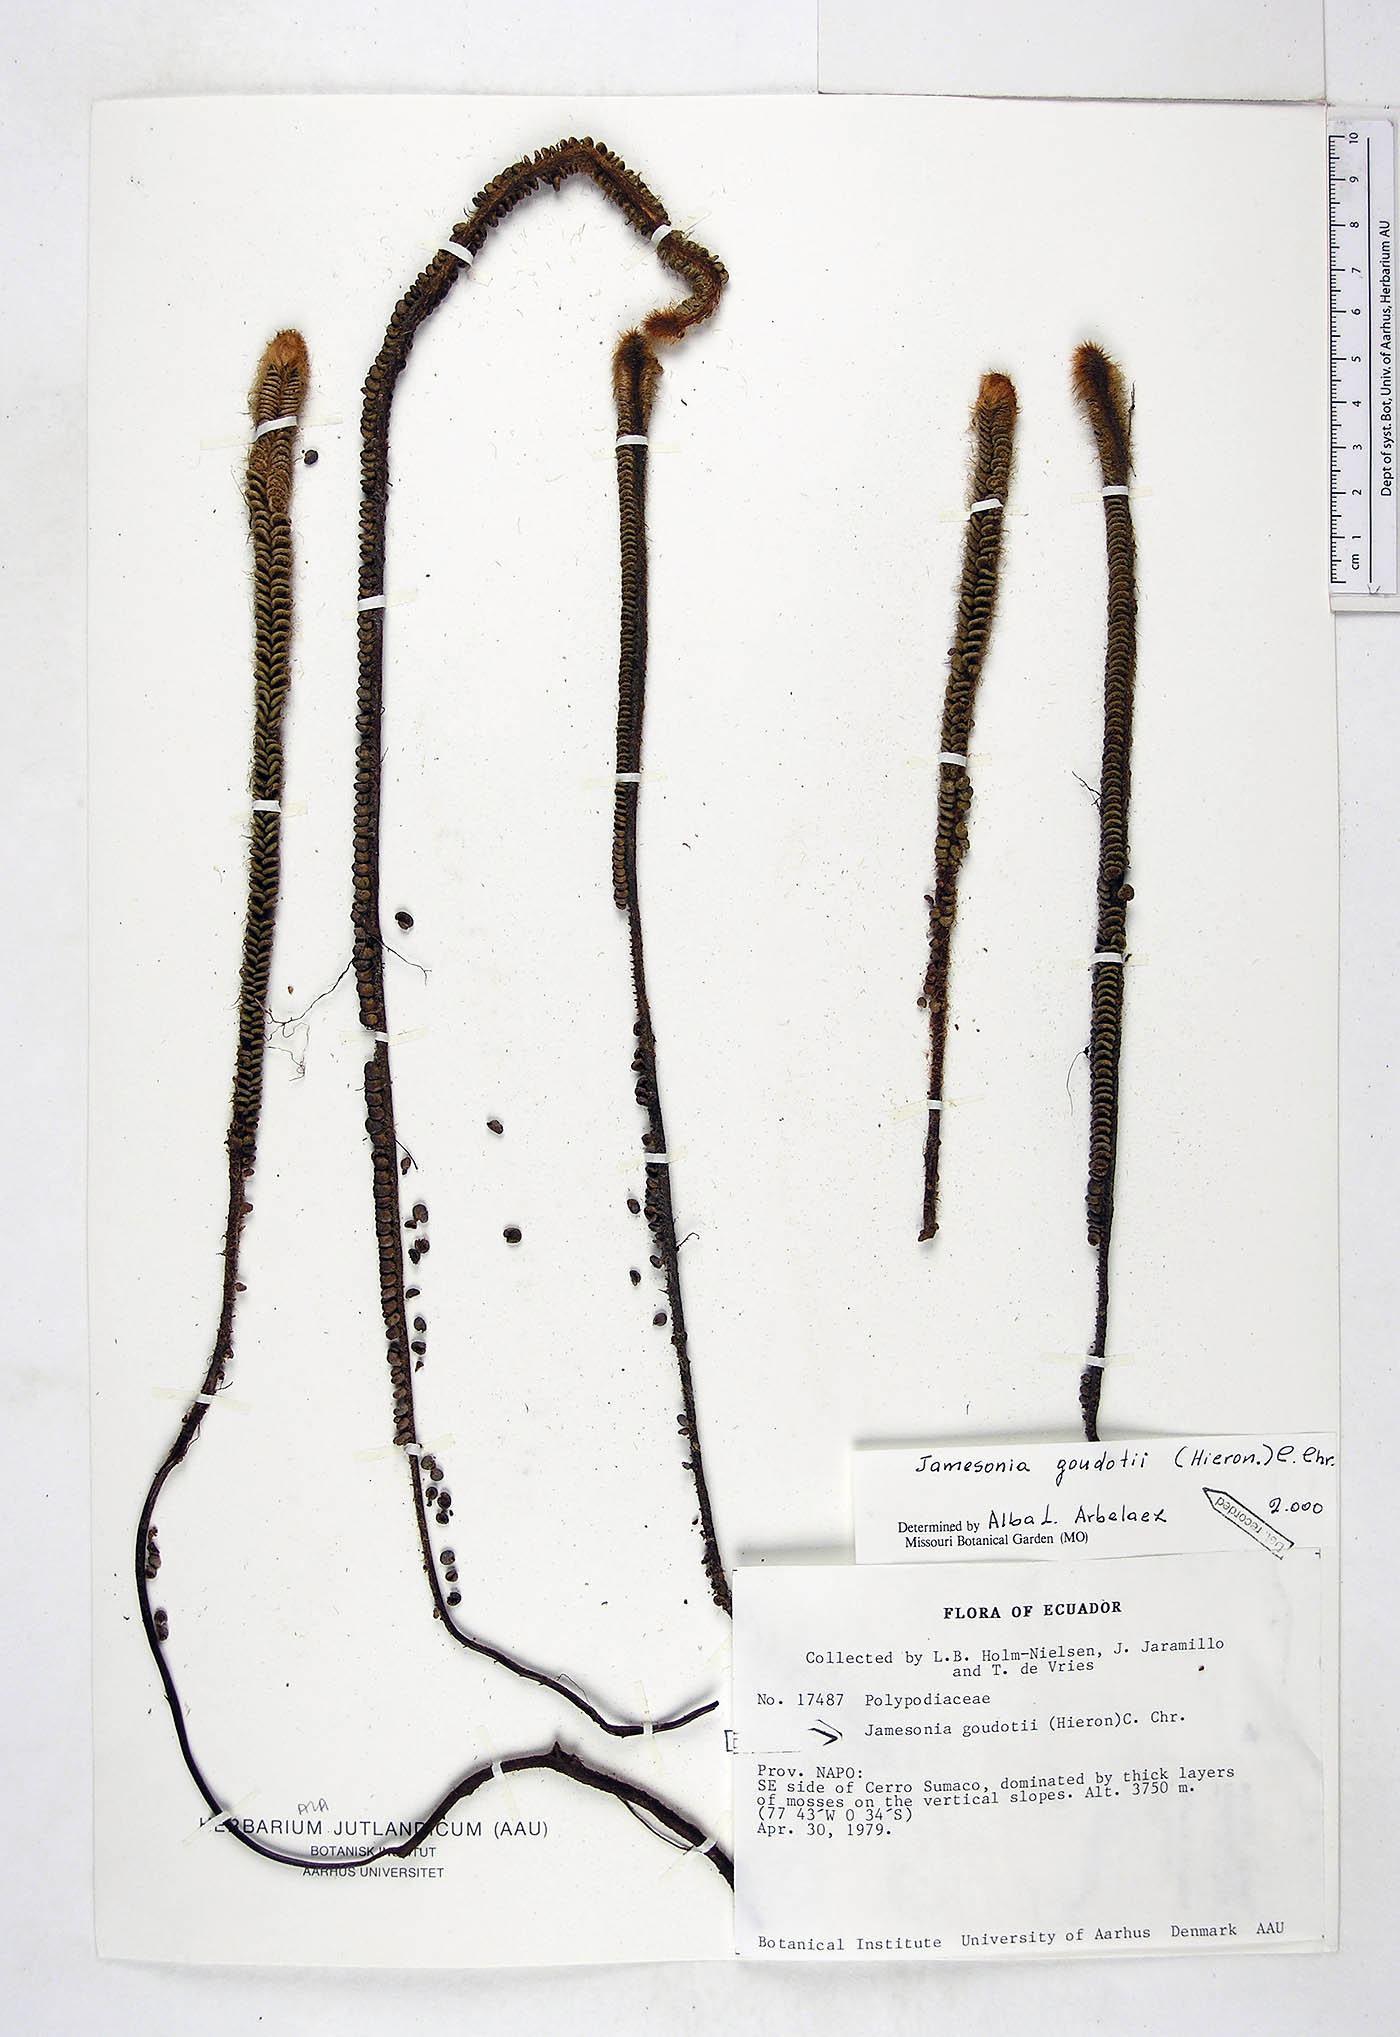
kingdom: Plantae
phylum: Tracheophyta
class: Polypodiopsida
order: Polypodiales
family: Pteridaceae
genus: Jamesonia
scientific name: Jamesonia goudotii
